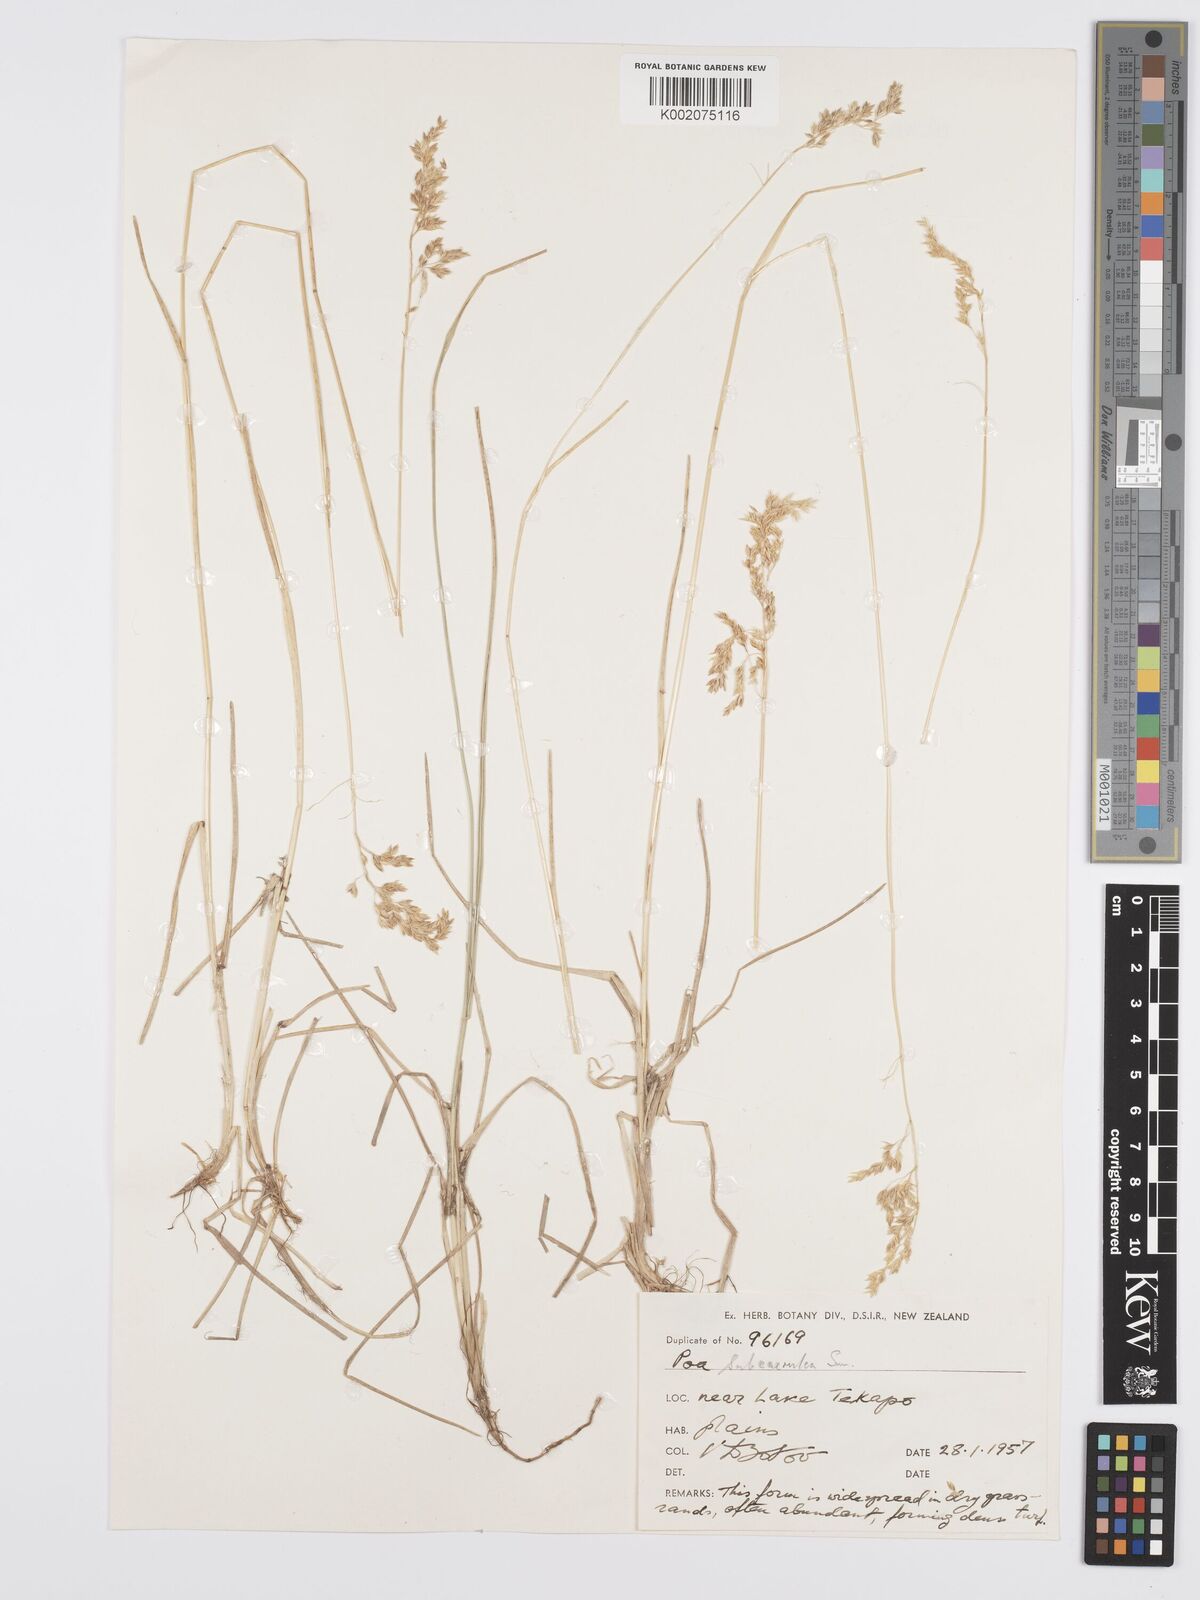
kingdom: Plantae
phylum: Tracheophyta
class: Liliopsida
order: Poales
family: Poaceae
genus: Poa
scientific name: Poa pratensis
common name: Kentucky bluegrass
